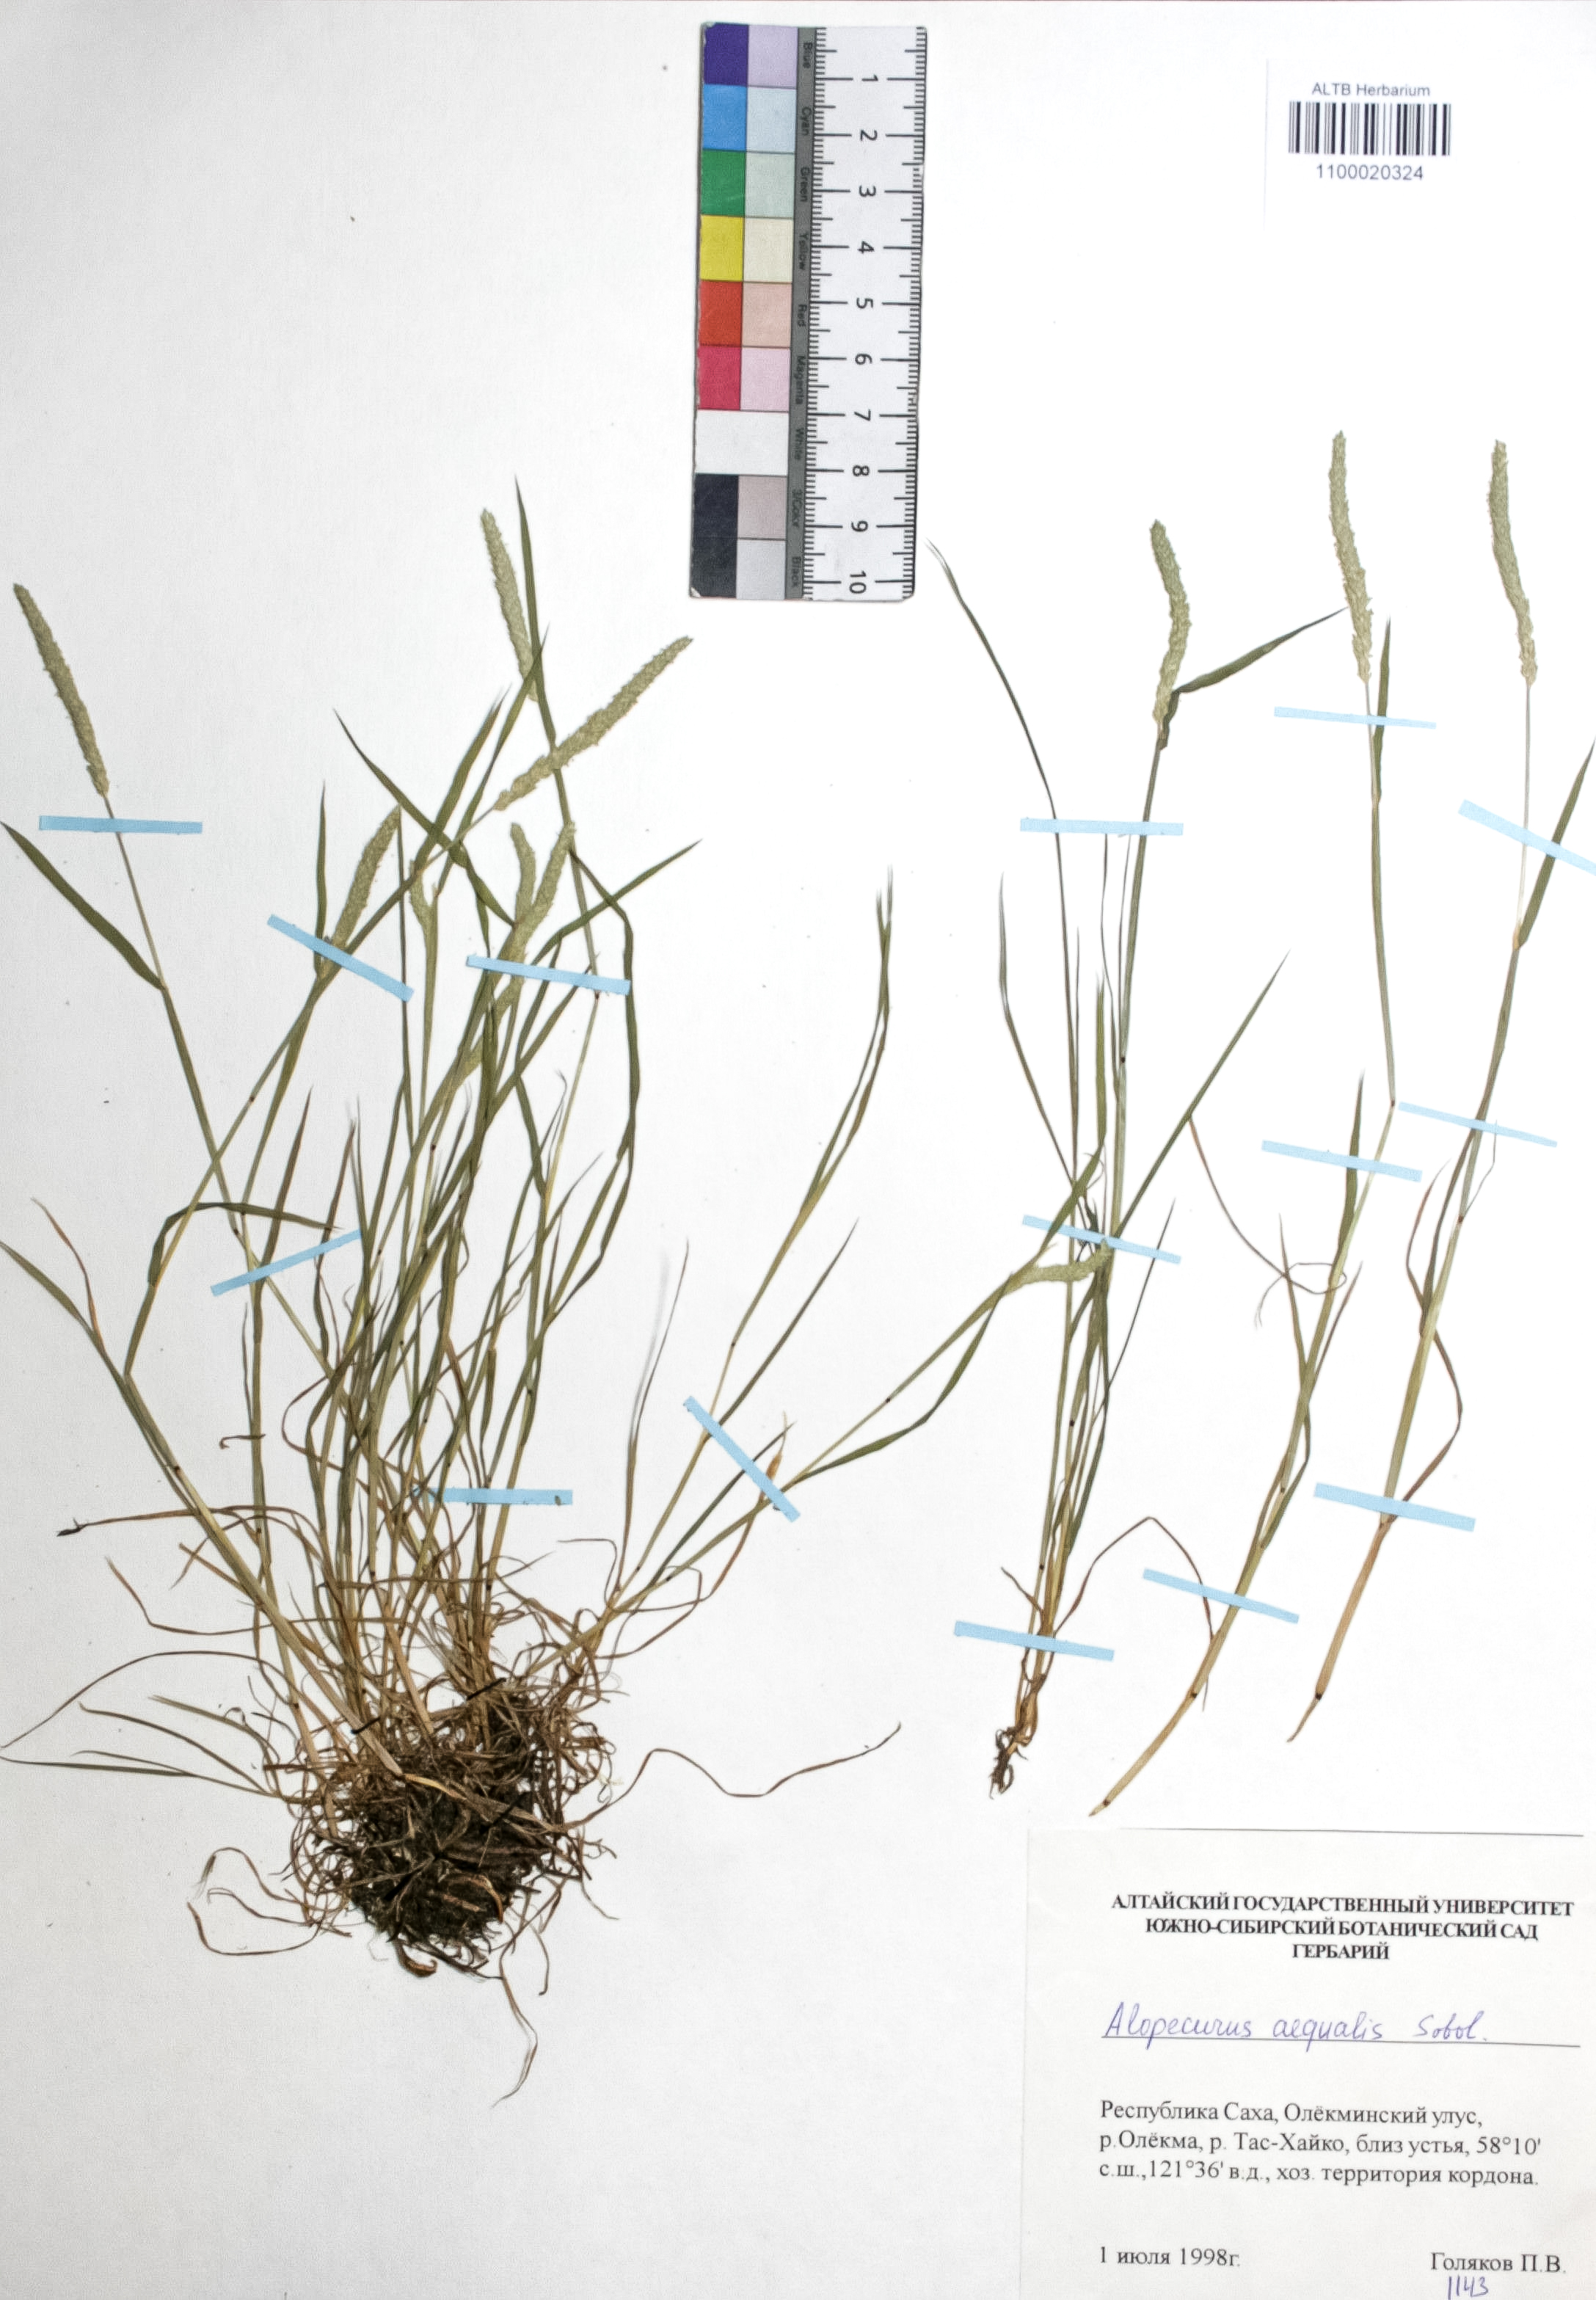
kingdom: Plantae
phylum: Tracheophyta
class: Liliopsida
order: Poales
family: Poaceae
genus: Alopecurus
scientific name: Alopecurus aequalis
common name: Orange foxtail
